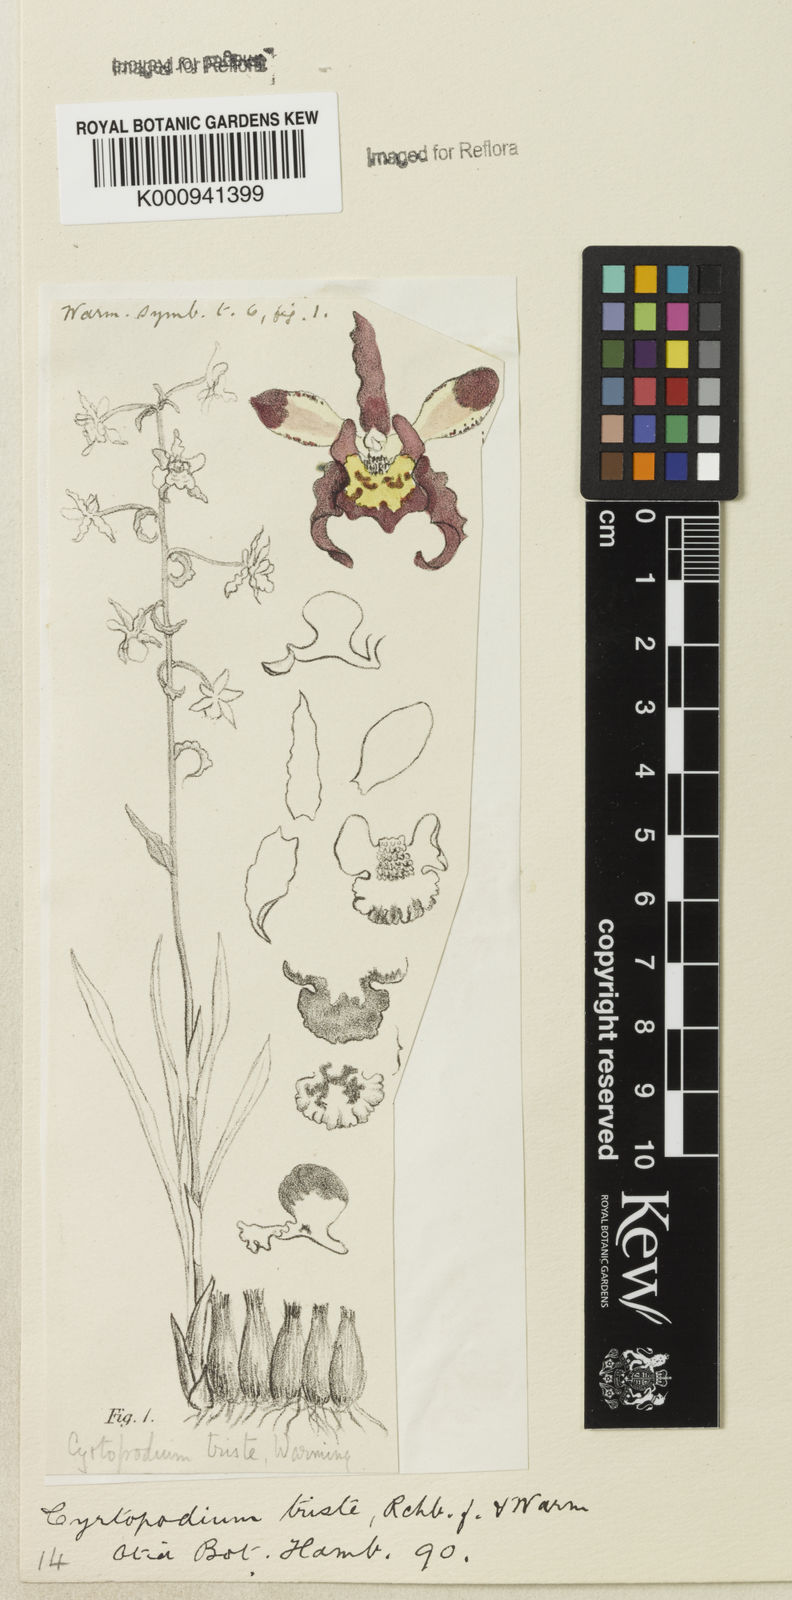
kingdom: Plantae
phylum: Tracheophyta
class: Liliopsida
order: Asparagales
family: Orchidaceae
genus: Cyrtopodium
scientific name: Cyrtopodium triste
